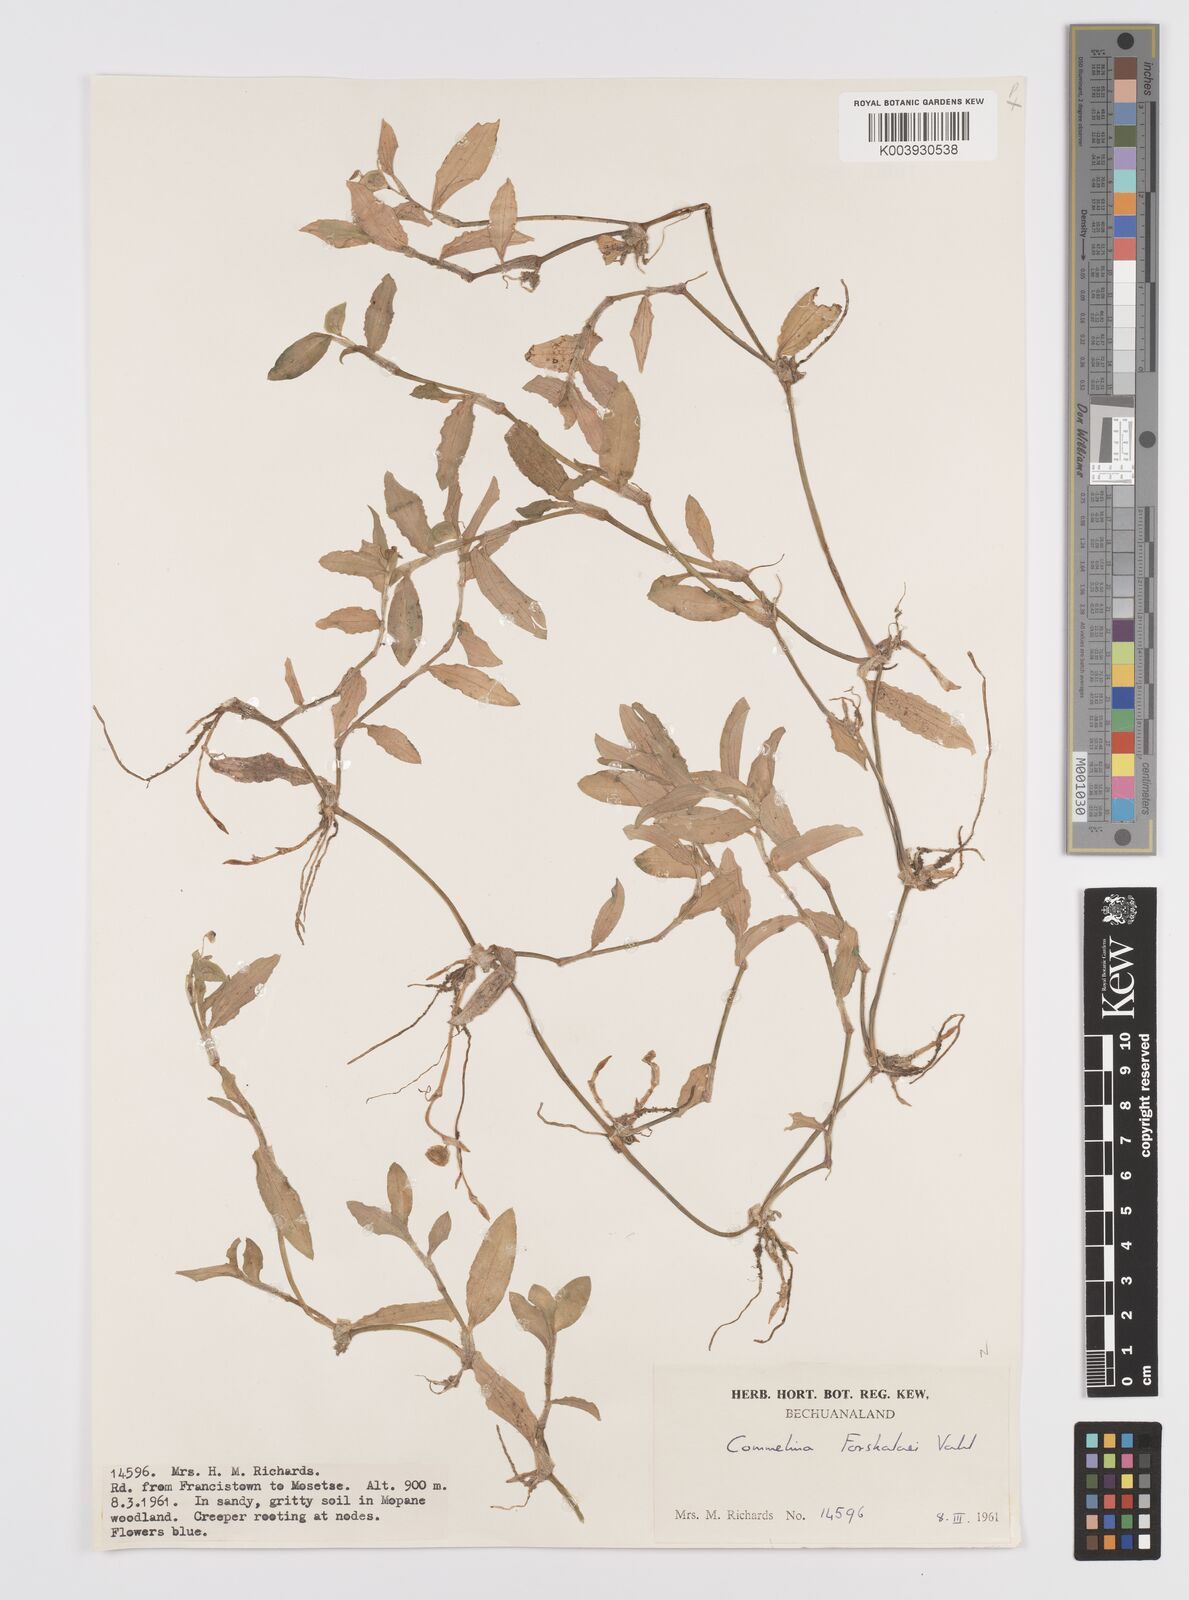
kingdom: Plantae
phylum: Tracheophyta
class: Liliopsida
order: Commelinales
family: Commelinaceae
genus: Commelina
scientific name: Commelina forskaolii
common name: Rat's ear
